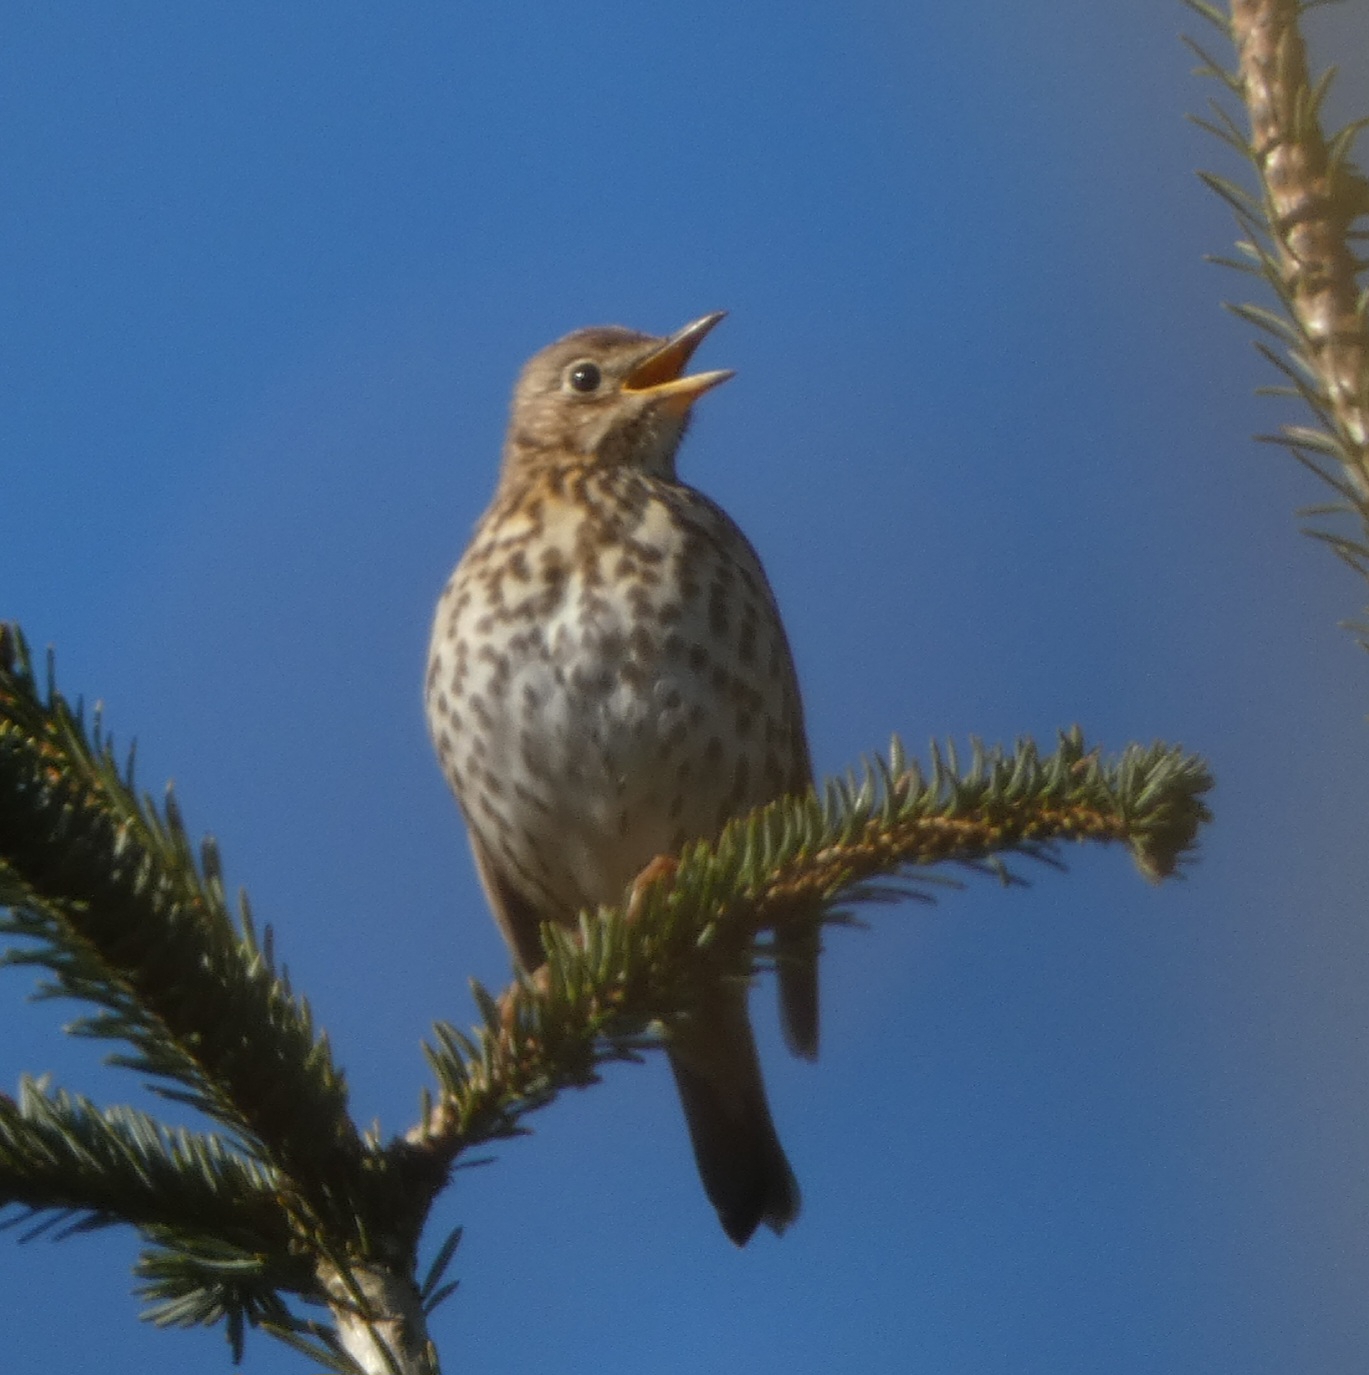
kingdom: Animalia
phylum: Chordata
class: Aves
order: Passeriformes
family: Turdidae
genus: Turdus
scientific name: Turdus philomelos
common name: Sangdrossel
